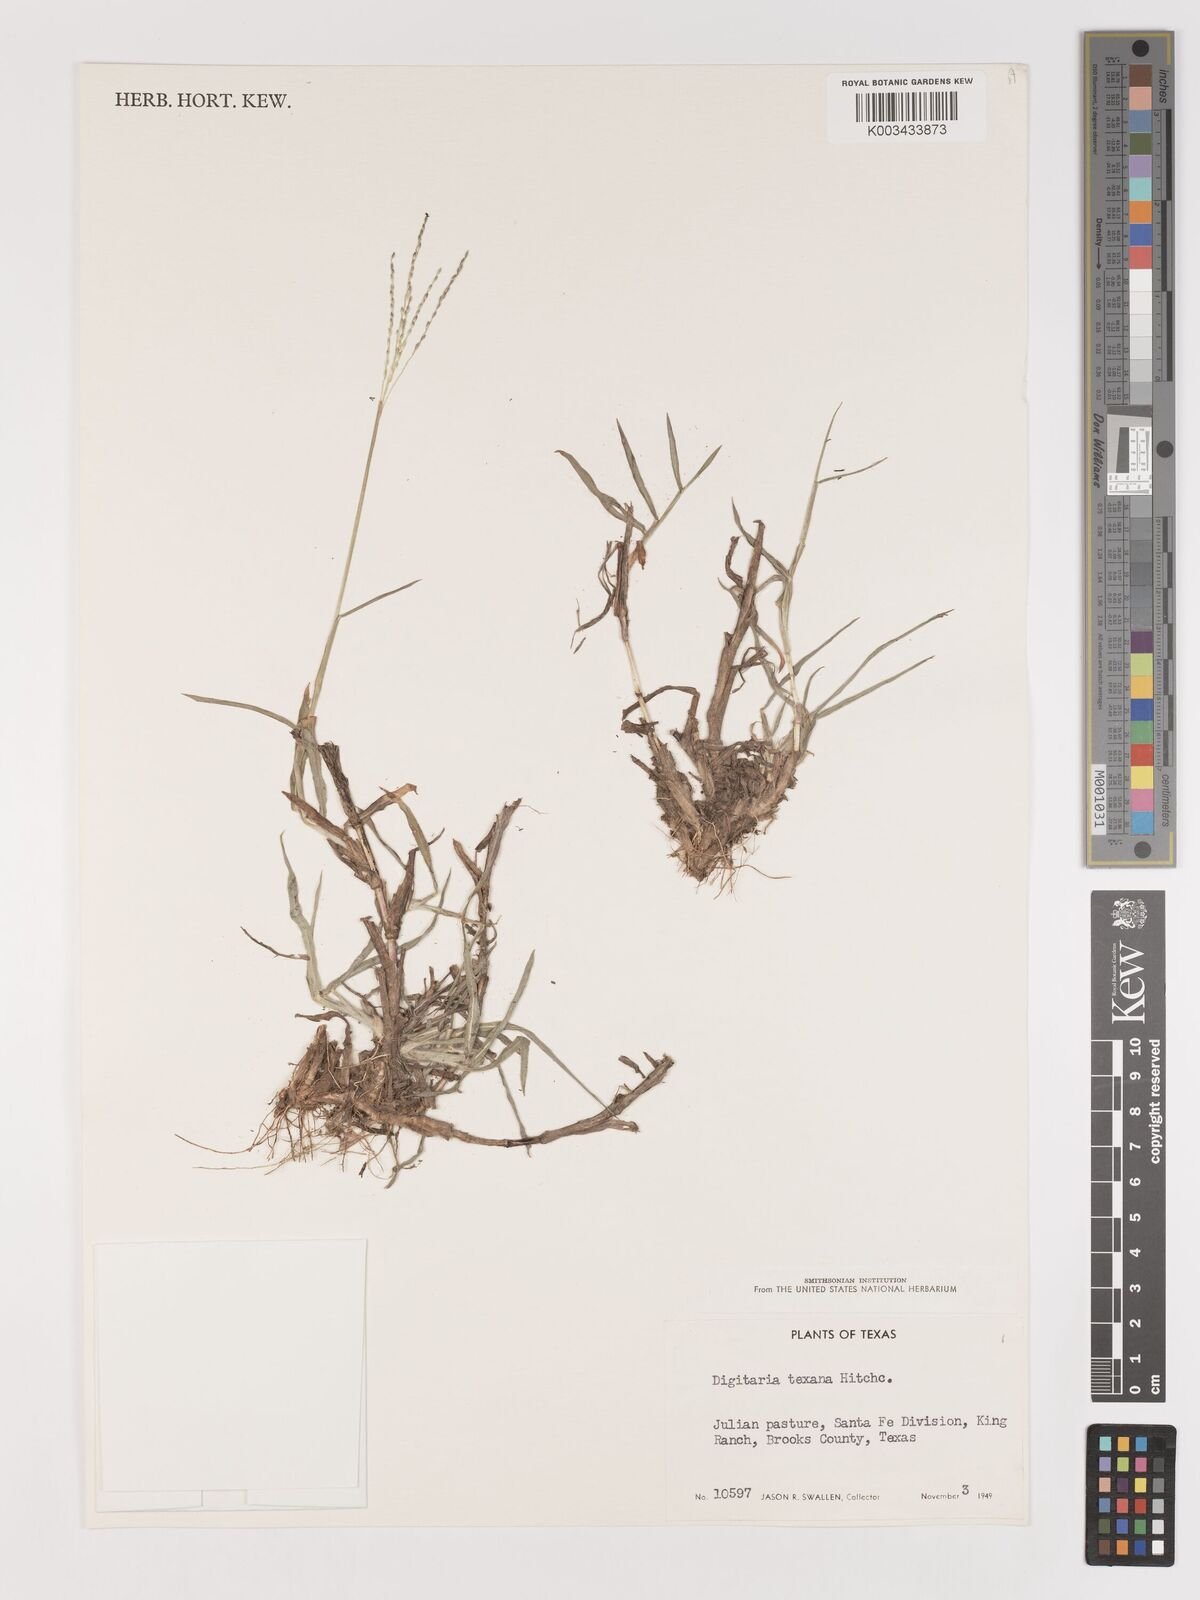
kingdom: Plantae
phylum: Tracheophyta
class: Liliopsida
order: Poales
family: Poaceae
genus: Digitaria
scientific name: Digitaria texana
